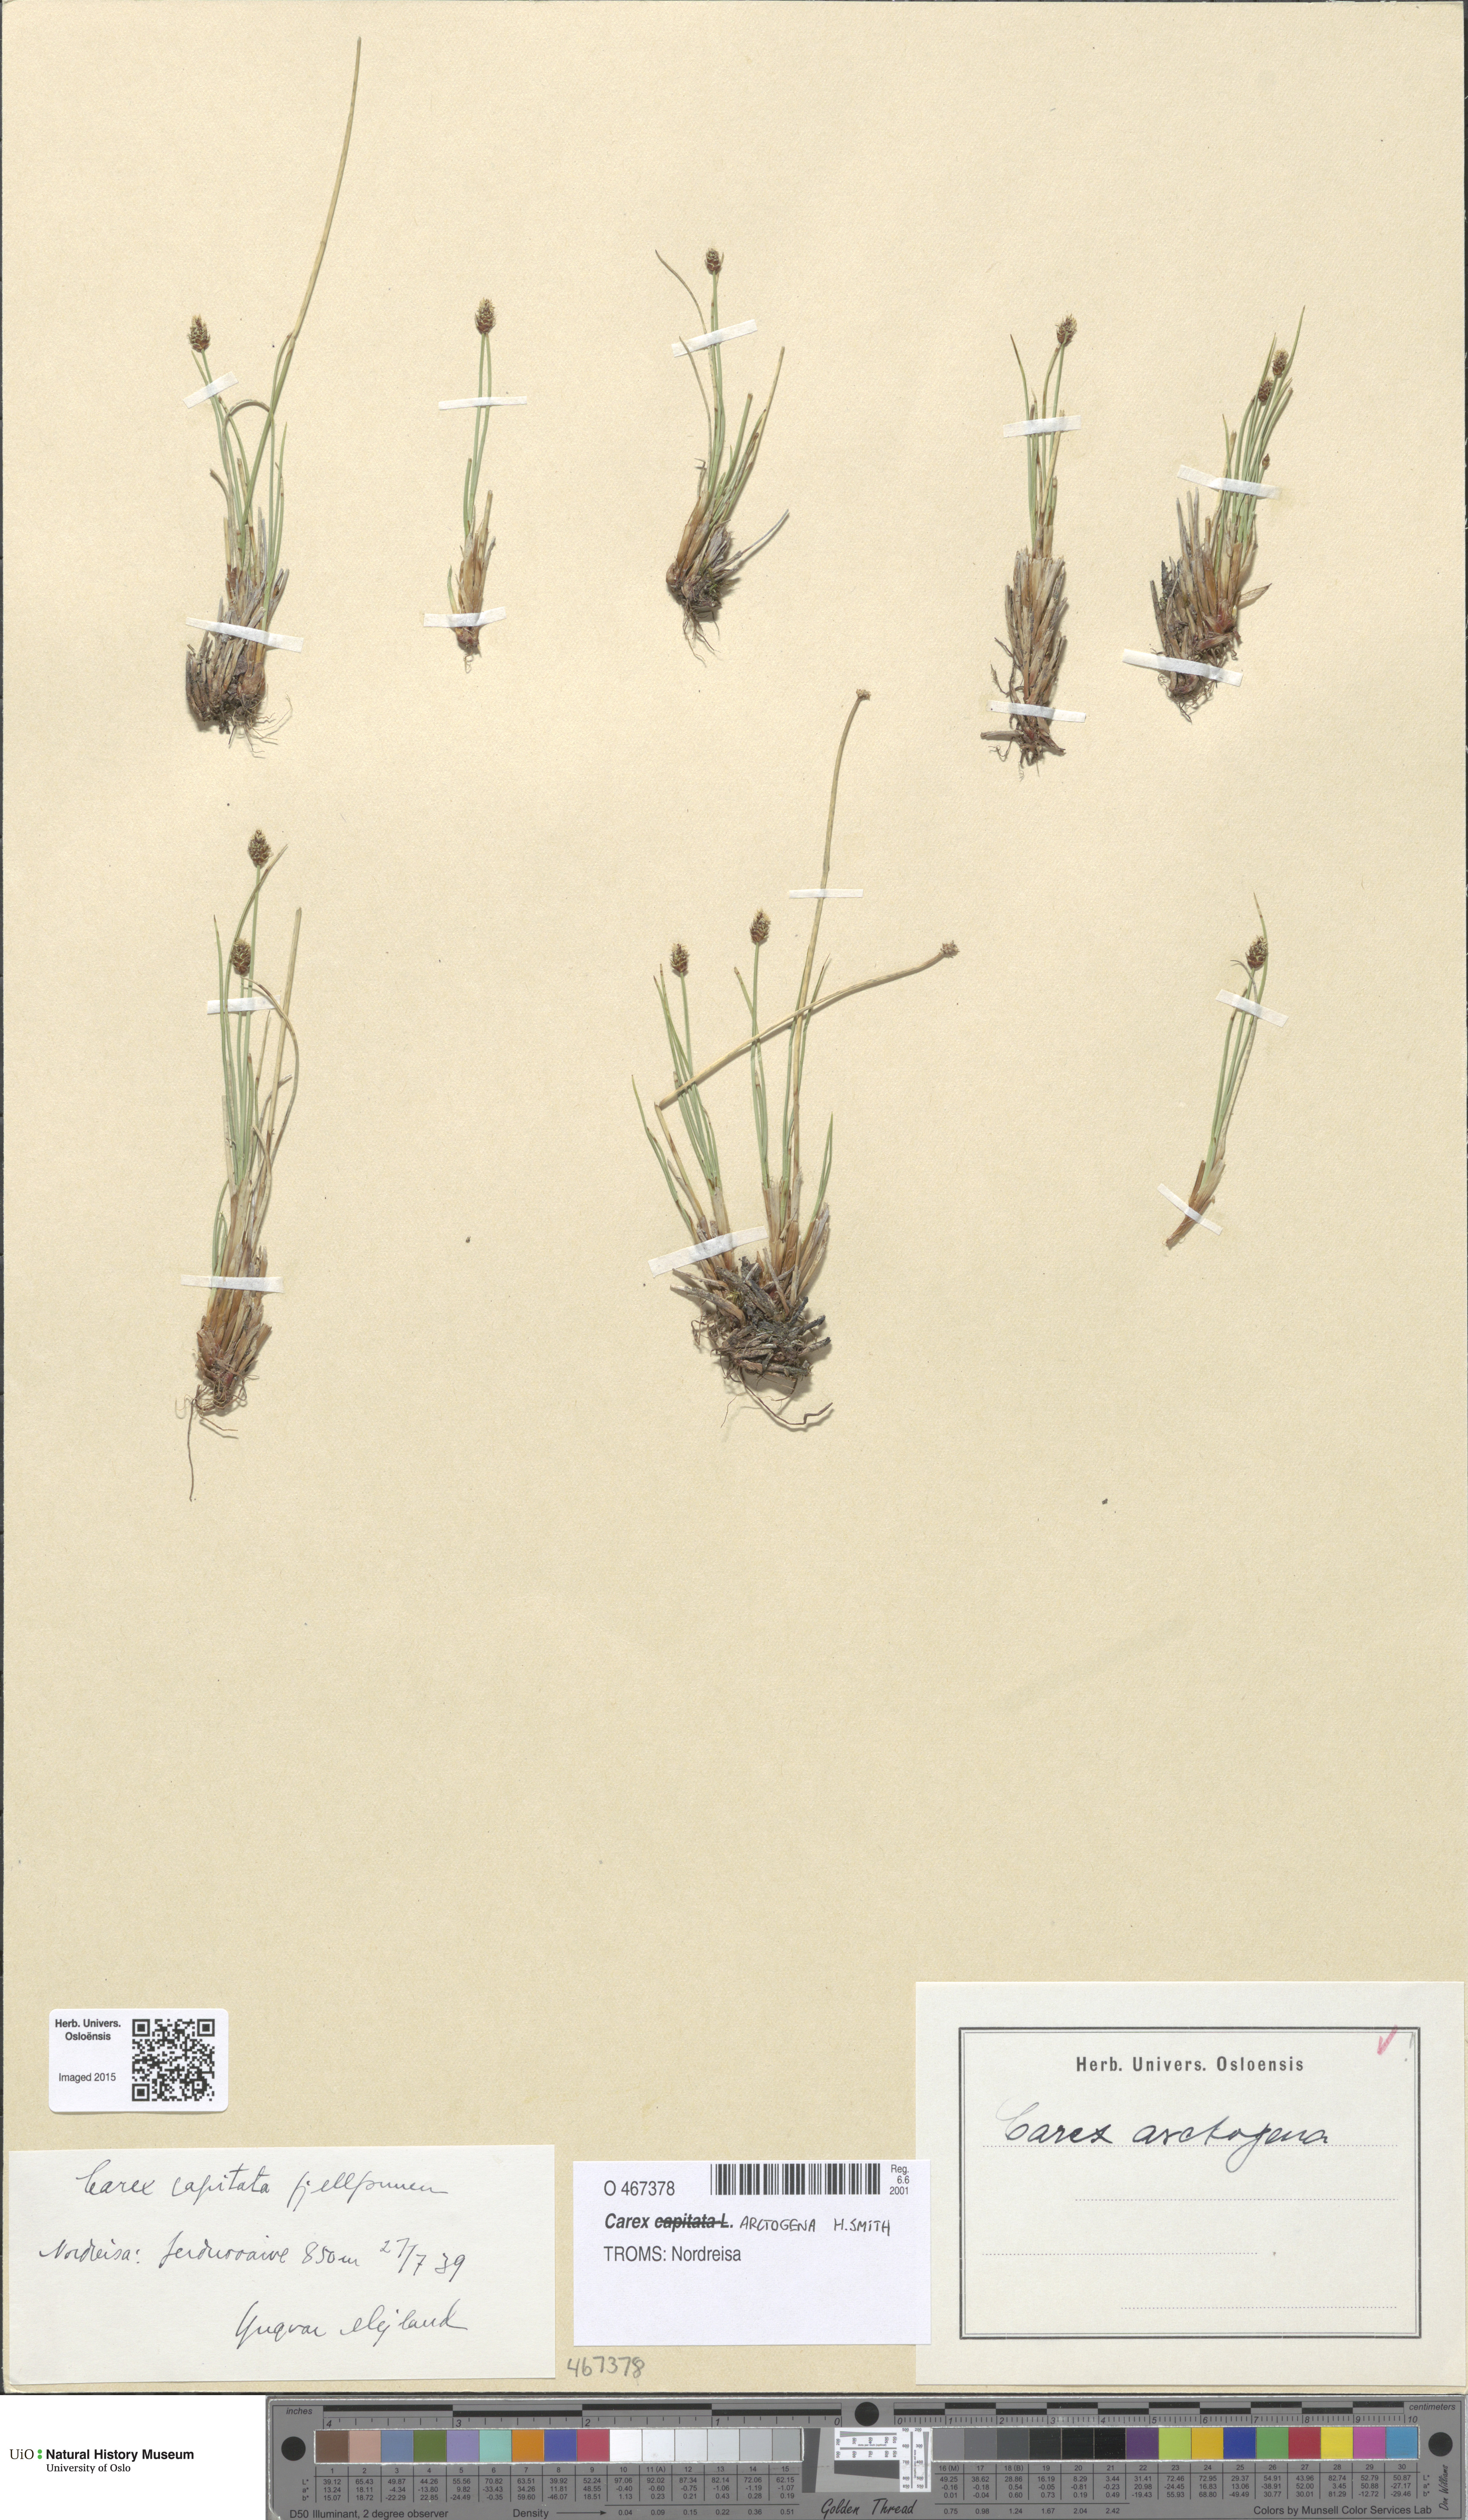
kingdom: Plantae
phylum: Tracheophyta
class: Liliopsida
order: Poales
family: Cyperaceae
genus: Carex
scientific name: Carex arctogena
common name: Black sedge
